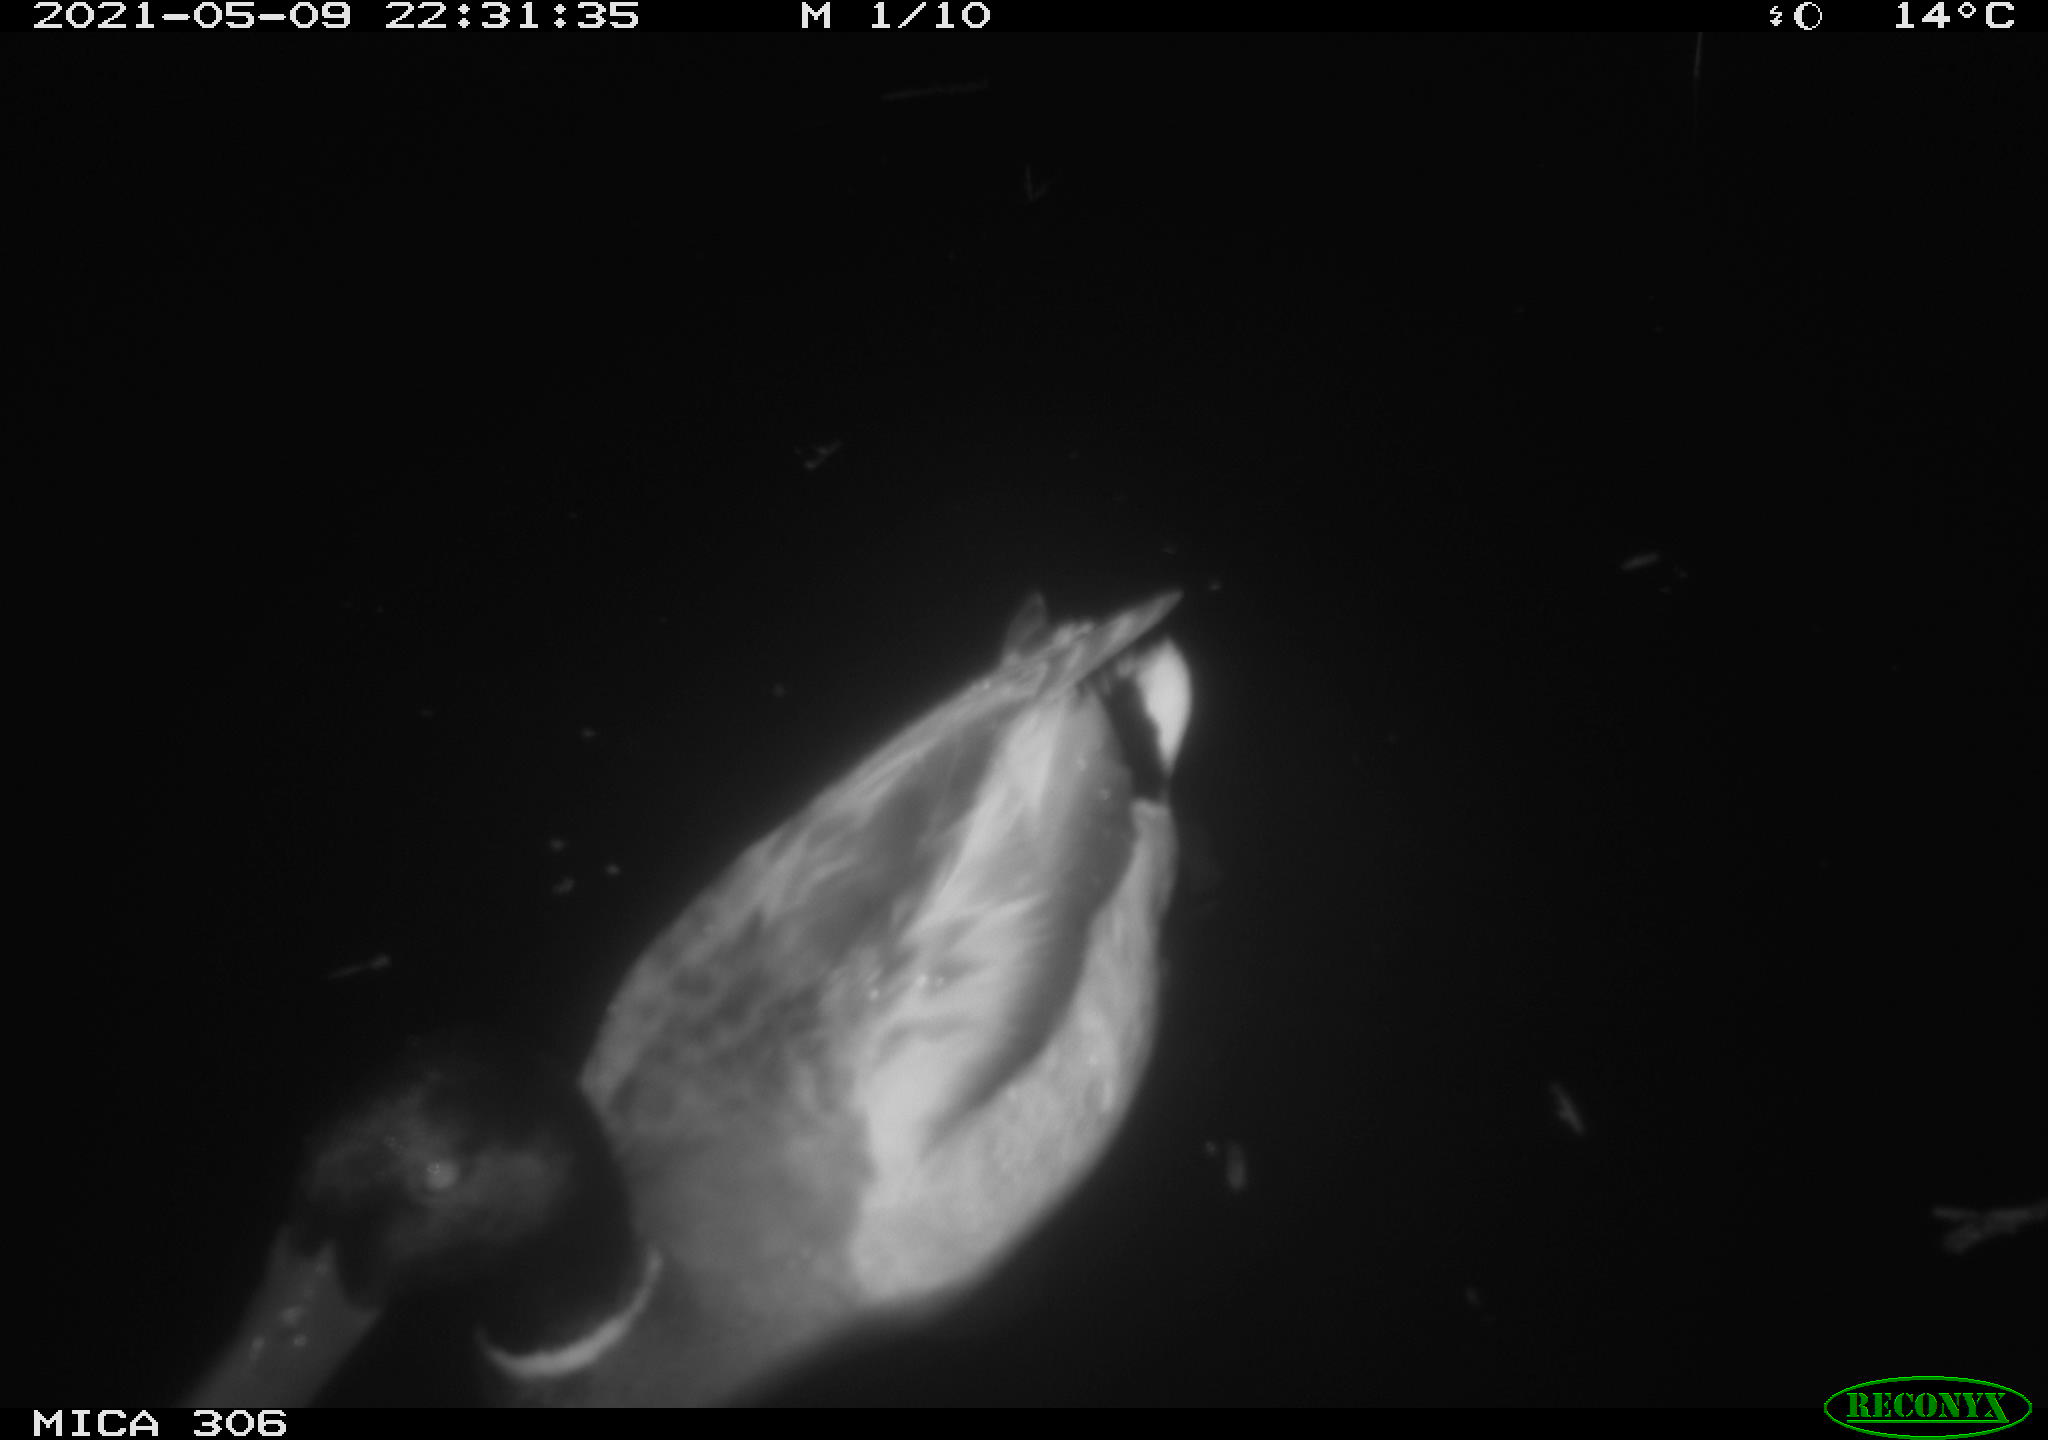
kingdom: Animalia
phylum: Chordata
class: Aves
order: Anseriformes
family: Anatidae
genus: Anas
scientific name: Anas platyrhynchos
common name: Mallard
